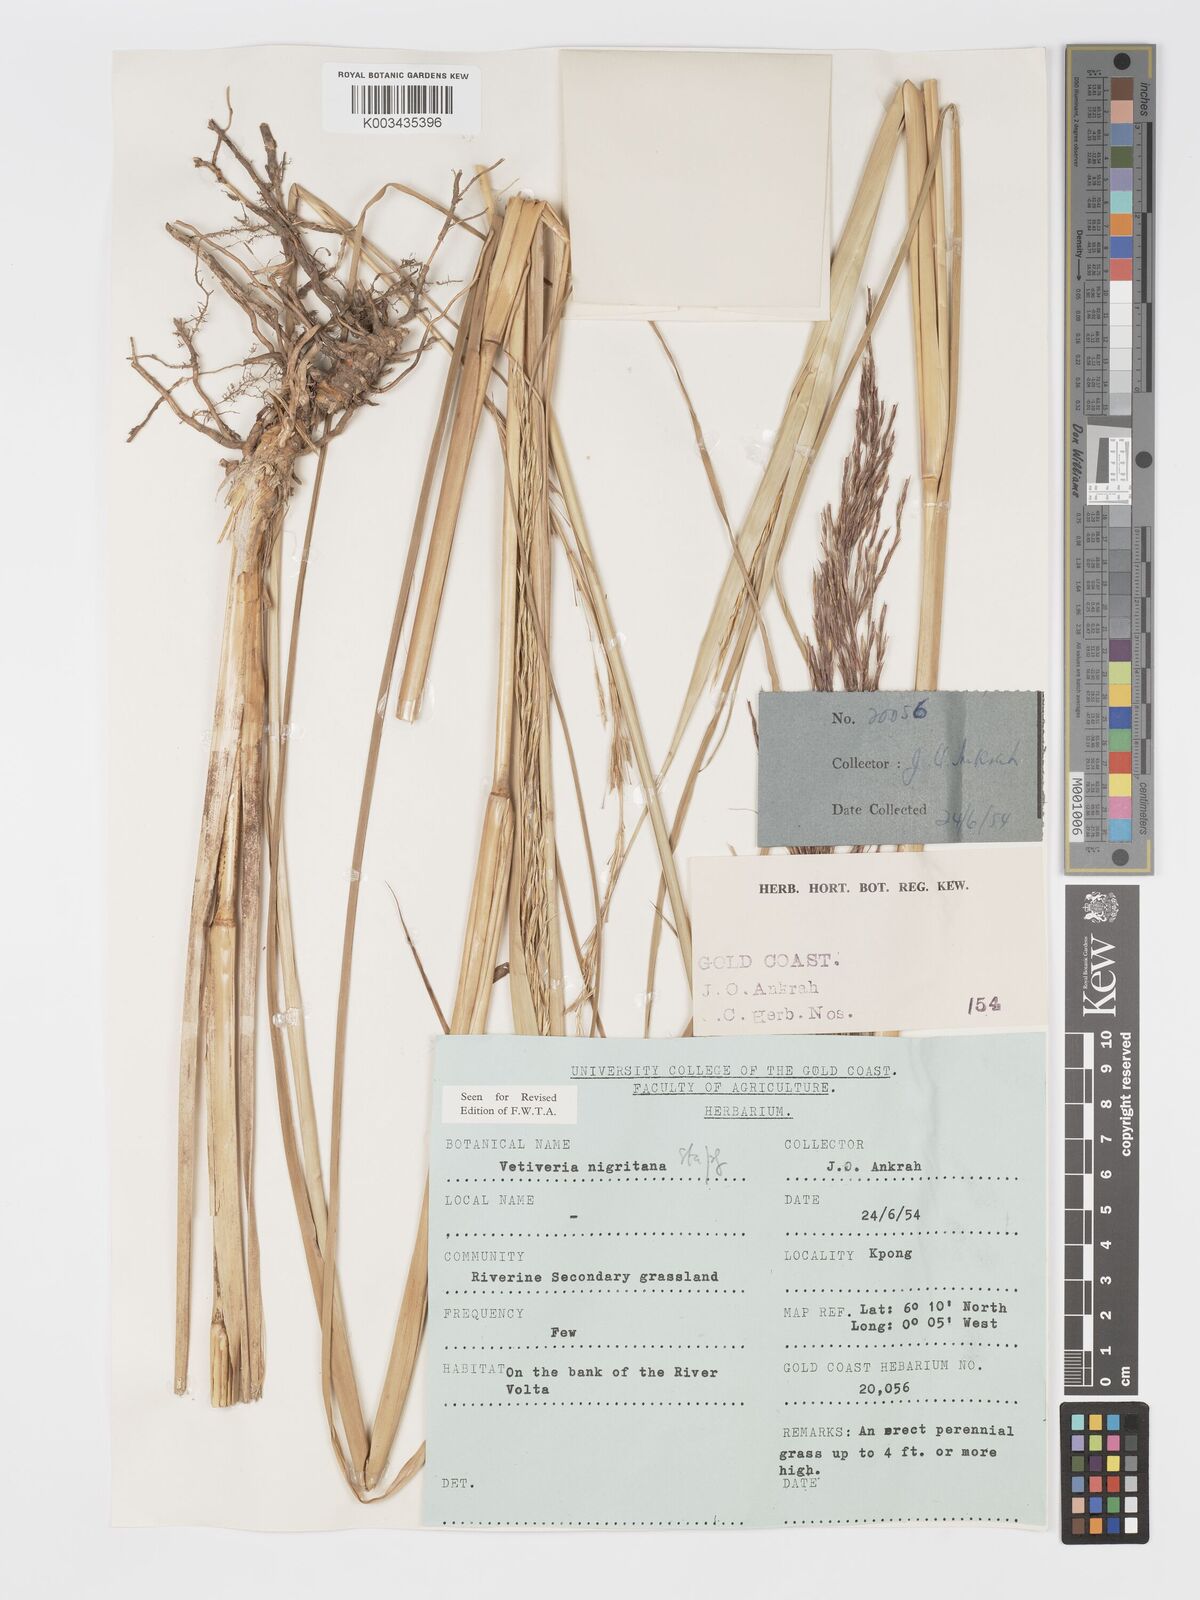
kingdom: Plantae
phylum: Tracheophyta
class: Liliopsida
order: Poales
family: Poaceae
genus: Chrysopogon
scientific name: Chrysopogon nigritanus
